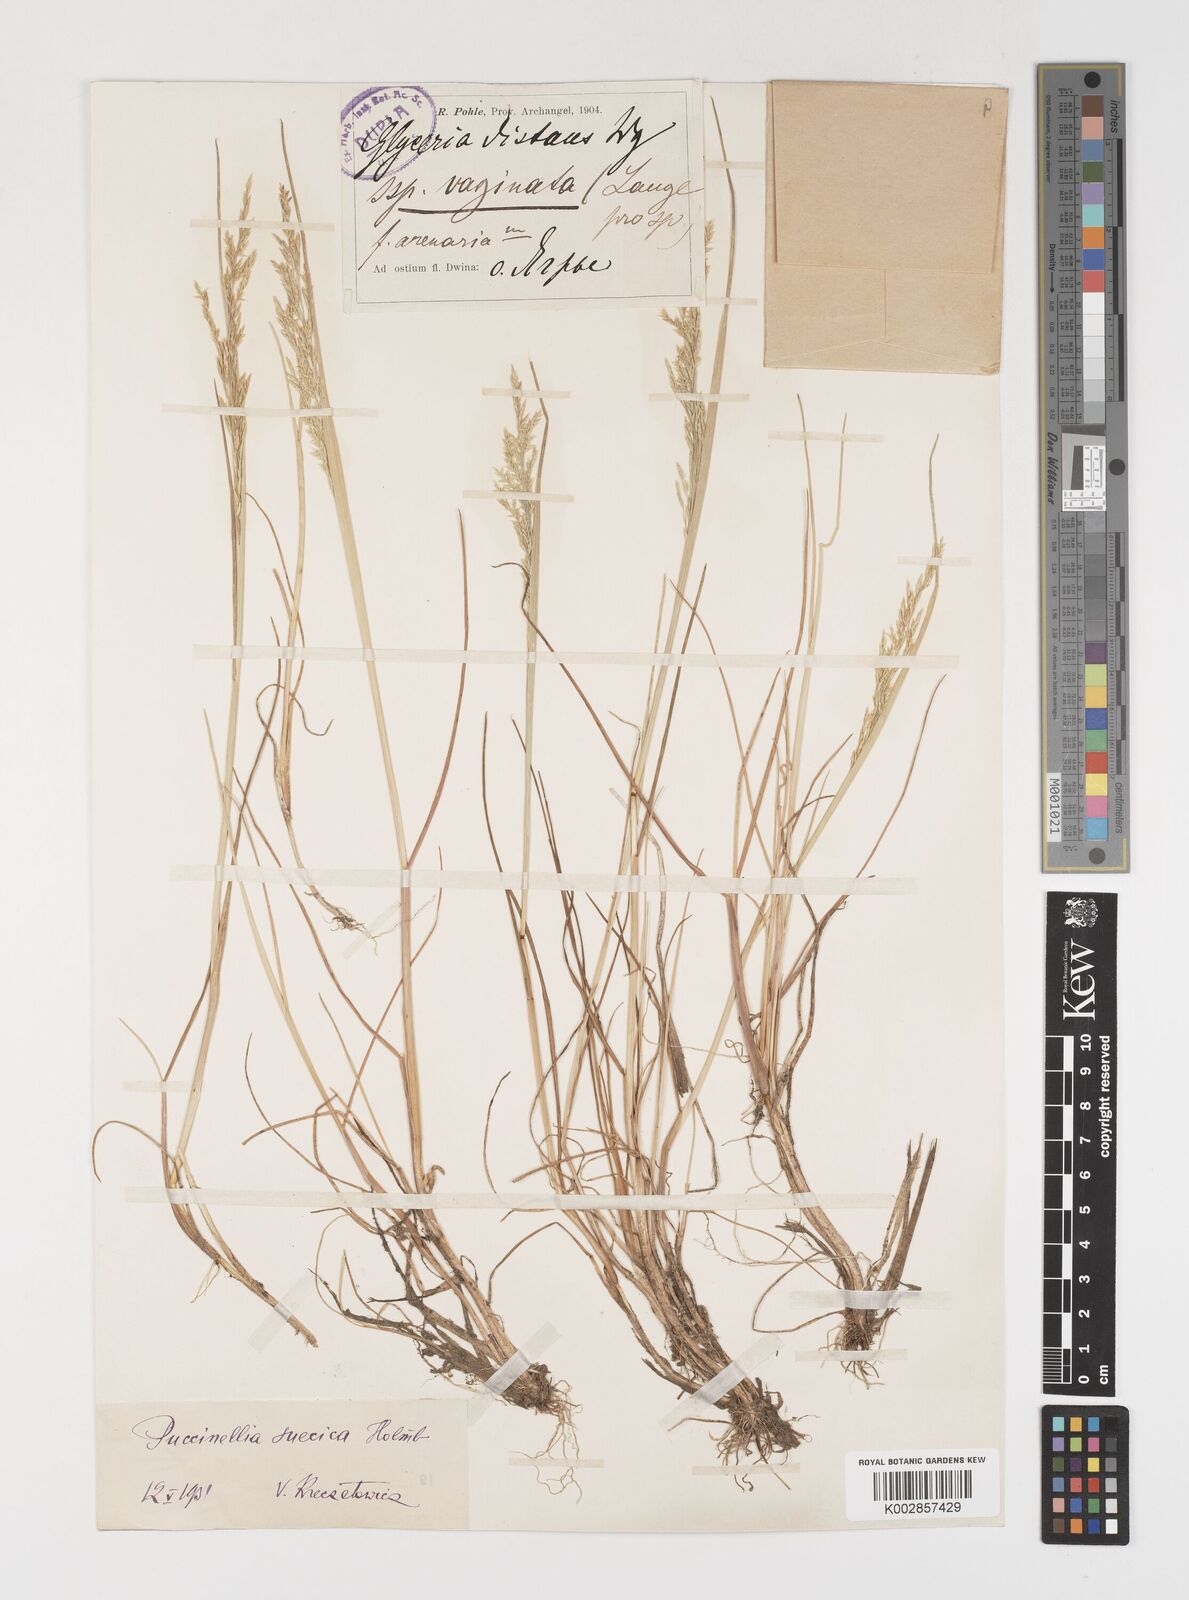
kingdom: Plantae
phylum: Tracheophyta
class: Liliopsida
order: Poales
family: Poaceae
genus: Puccinellia
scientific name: Puccinellia distans
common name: Weeping alkaligrass
